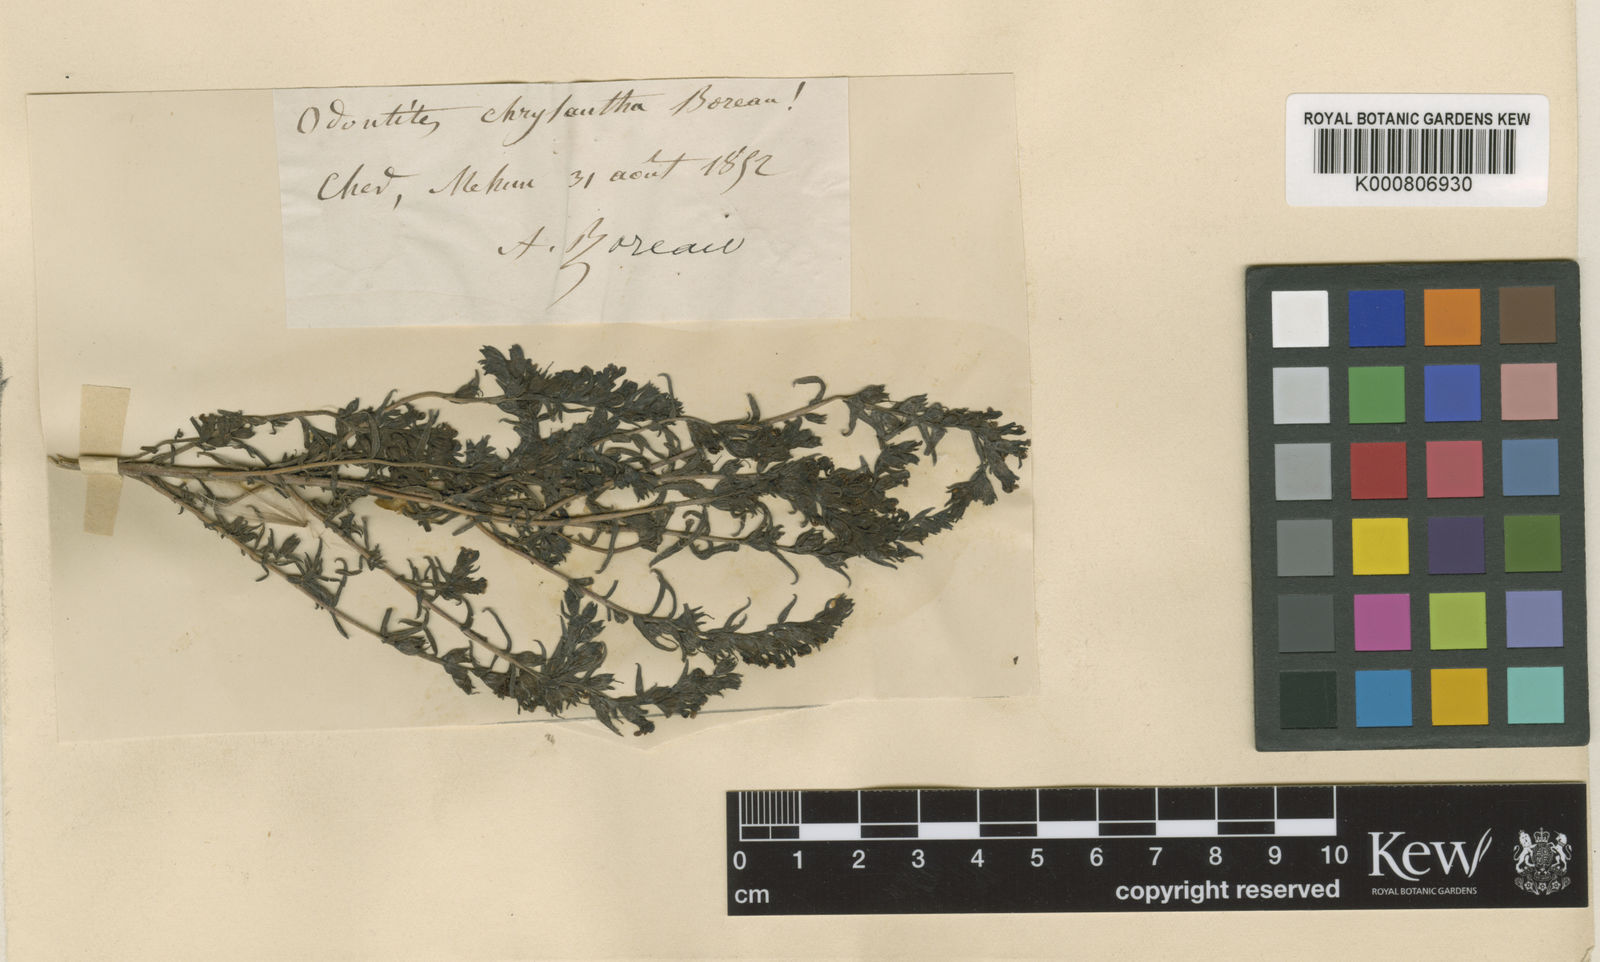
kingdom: Plantae
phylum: Tracheophyta
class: Magnoliopsida
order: Lamiales
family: Orobanchaceae
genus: Odontites
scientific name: Odontites
